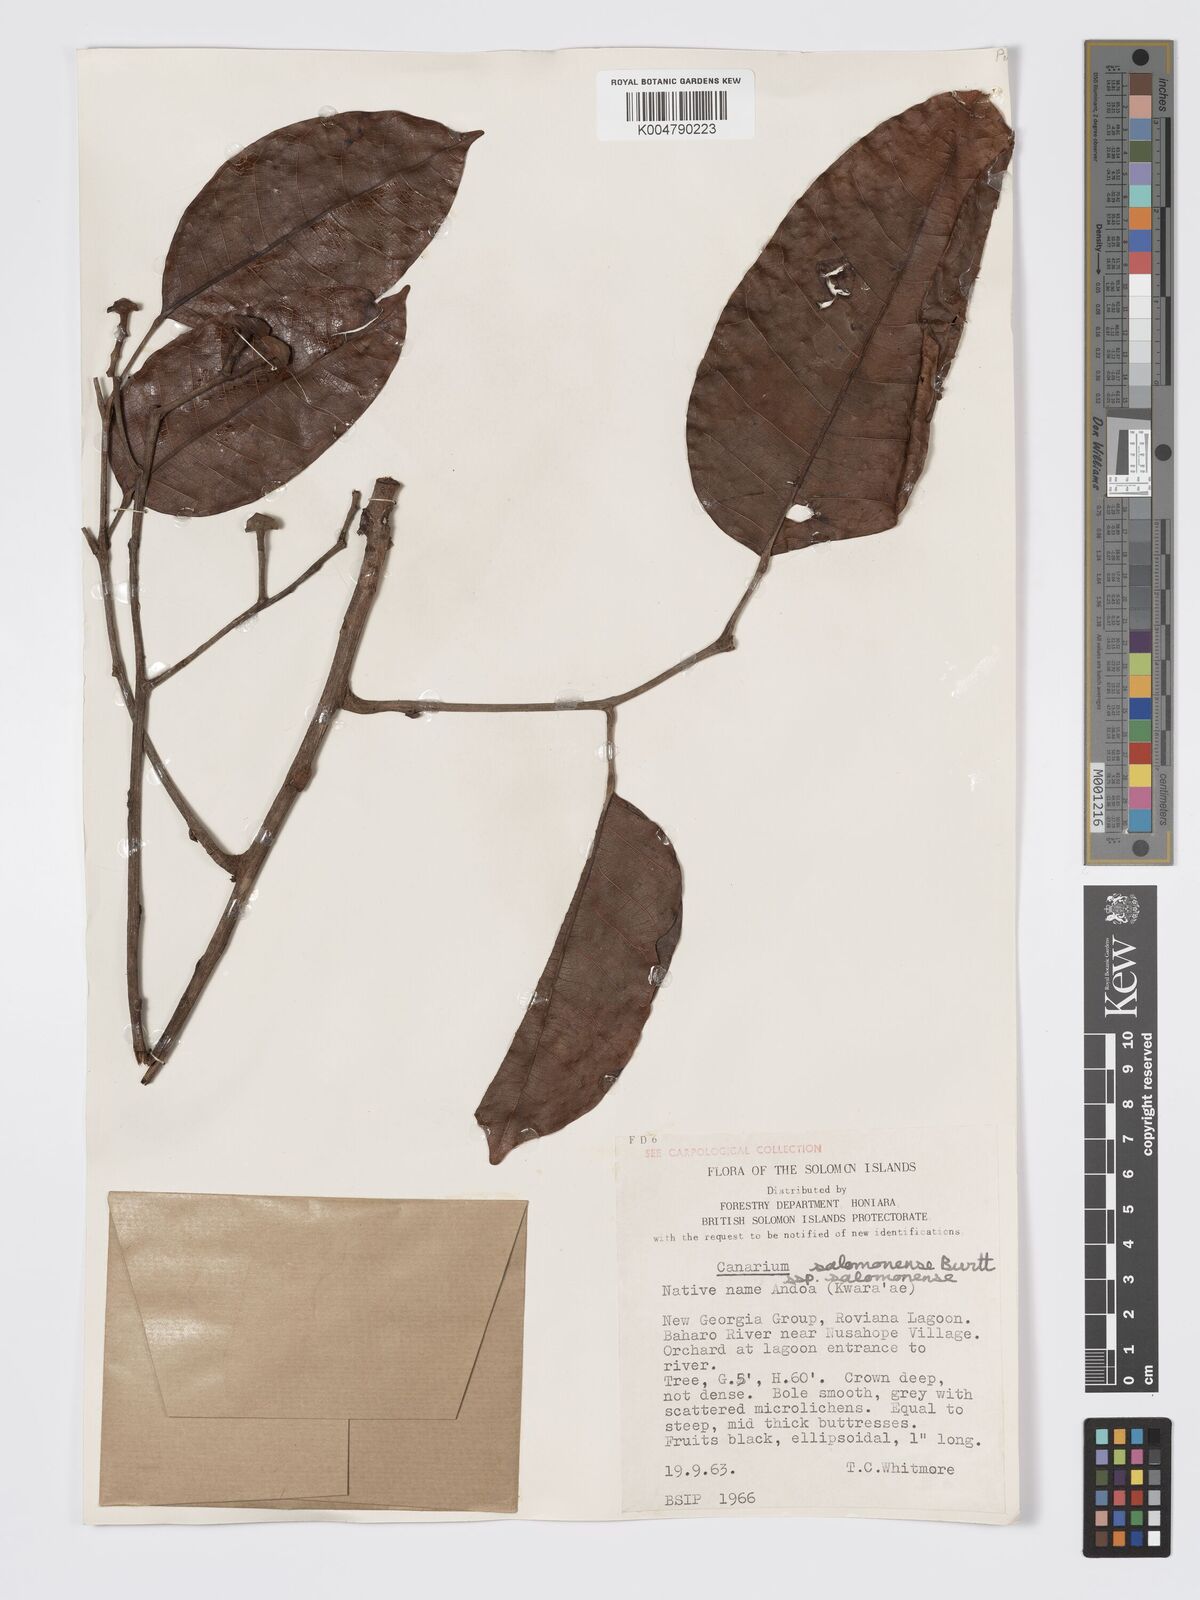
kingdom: Plantae
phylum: Tracheophyta
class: Magnoliopsida
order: Sapindales
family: Burseraceae
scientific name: Burseraceae
